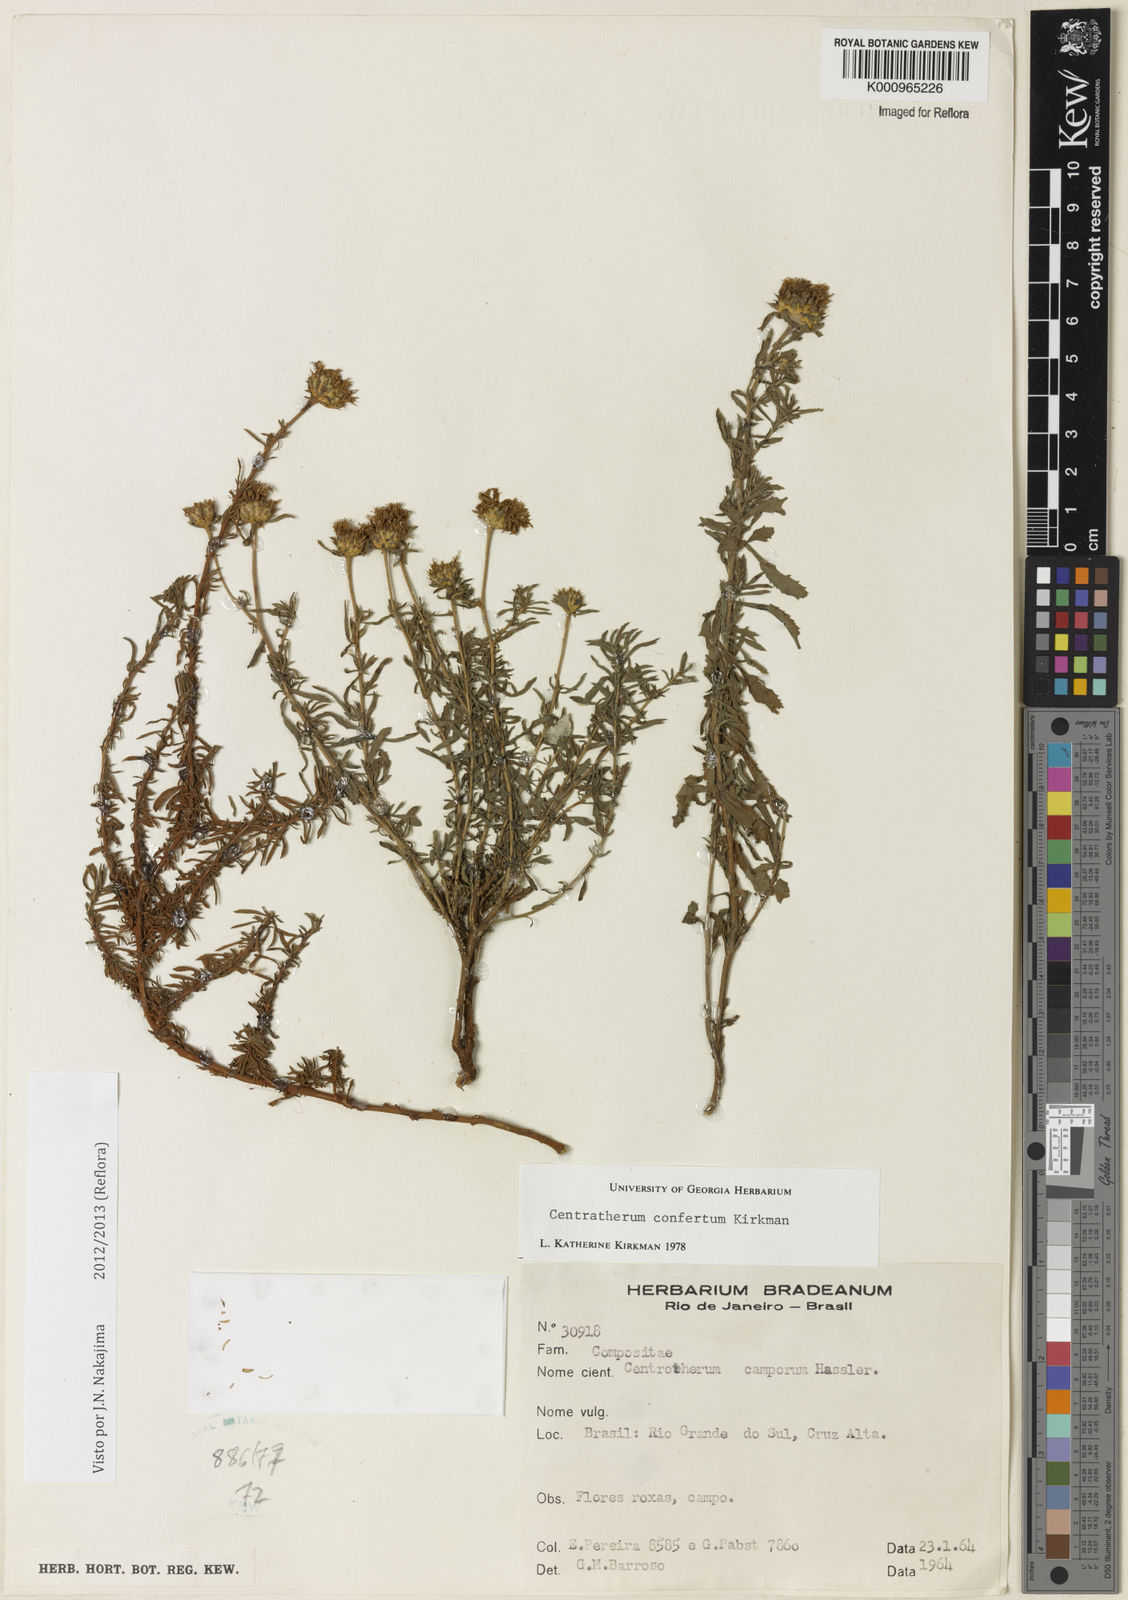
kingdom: Plantae
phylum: Tracheophyta
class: Magnoliopsida
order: Asterales
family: Asteraceae
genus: Centratherum
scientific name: Centratherum confertum
